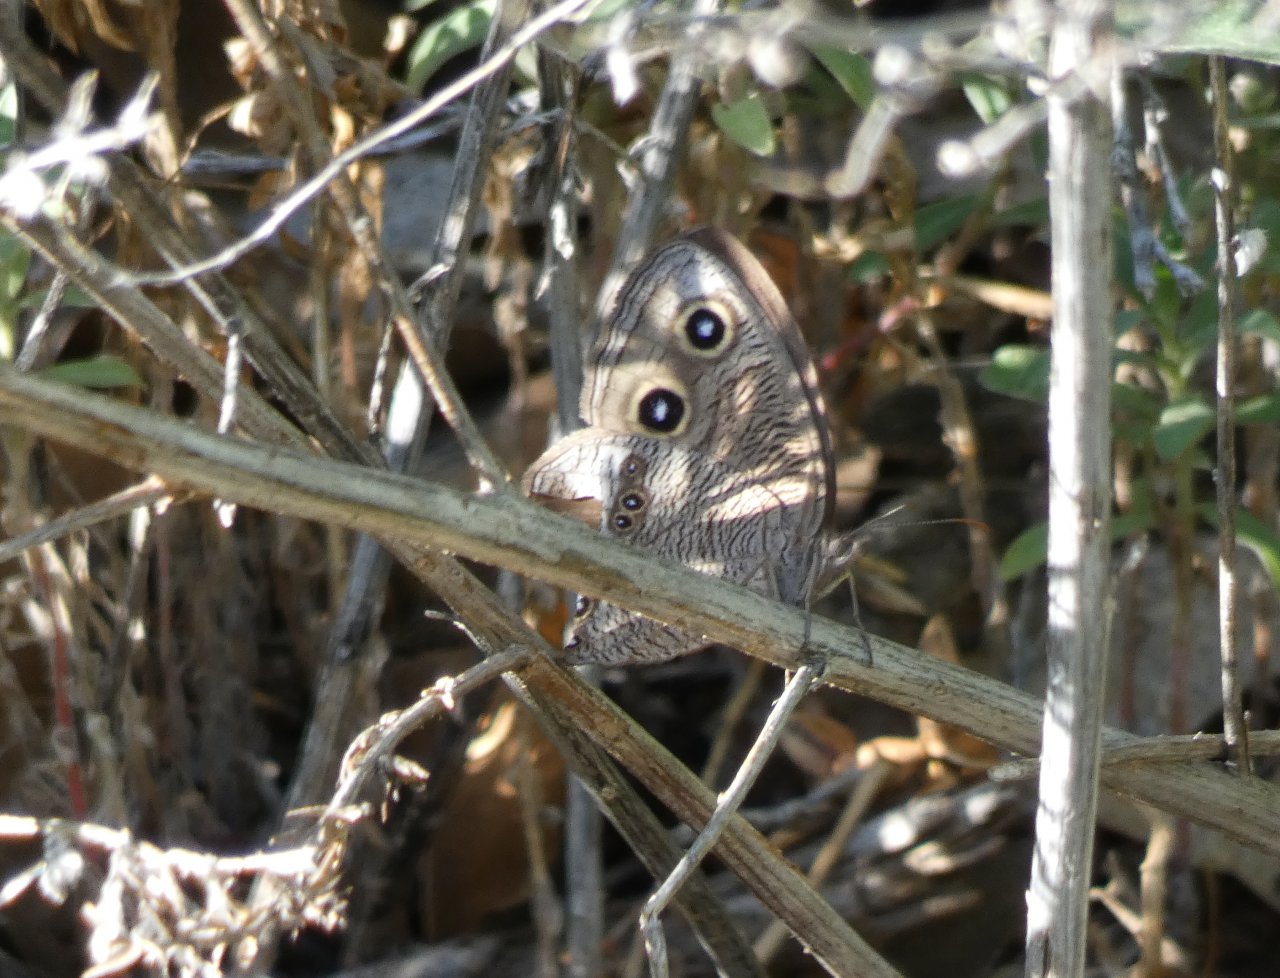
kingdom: Animalia
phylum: Arthropoda
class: Insecta
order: Lepidoptera
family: Nymphalidae
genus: Cercyonis
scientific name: Cercyonis pegala
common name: Common Wood-Nymph
